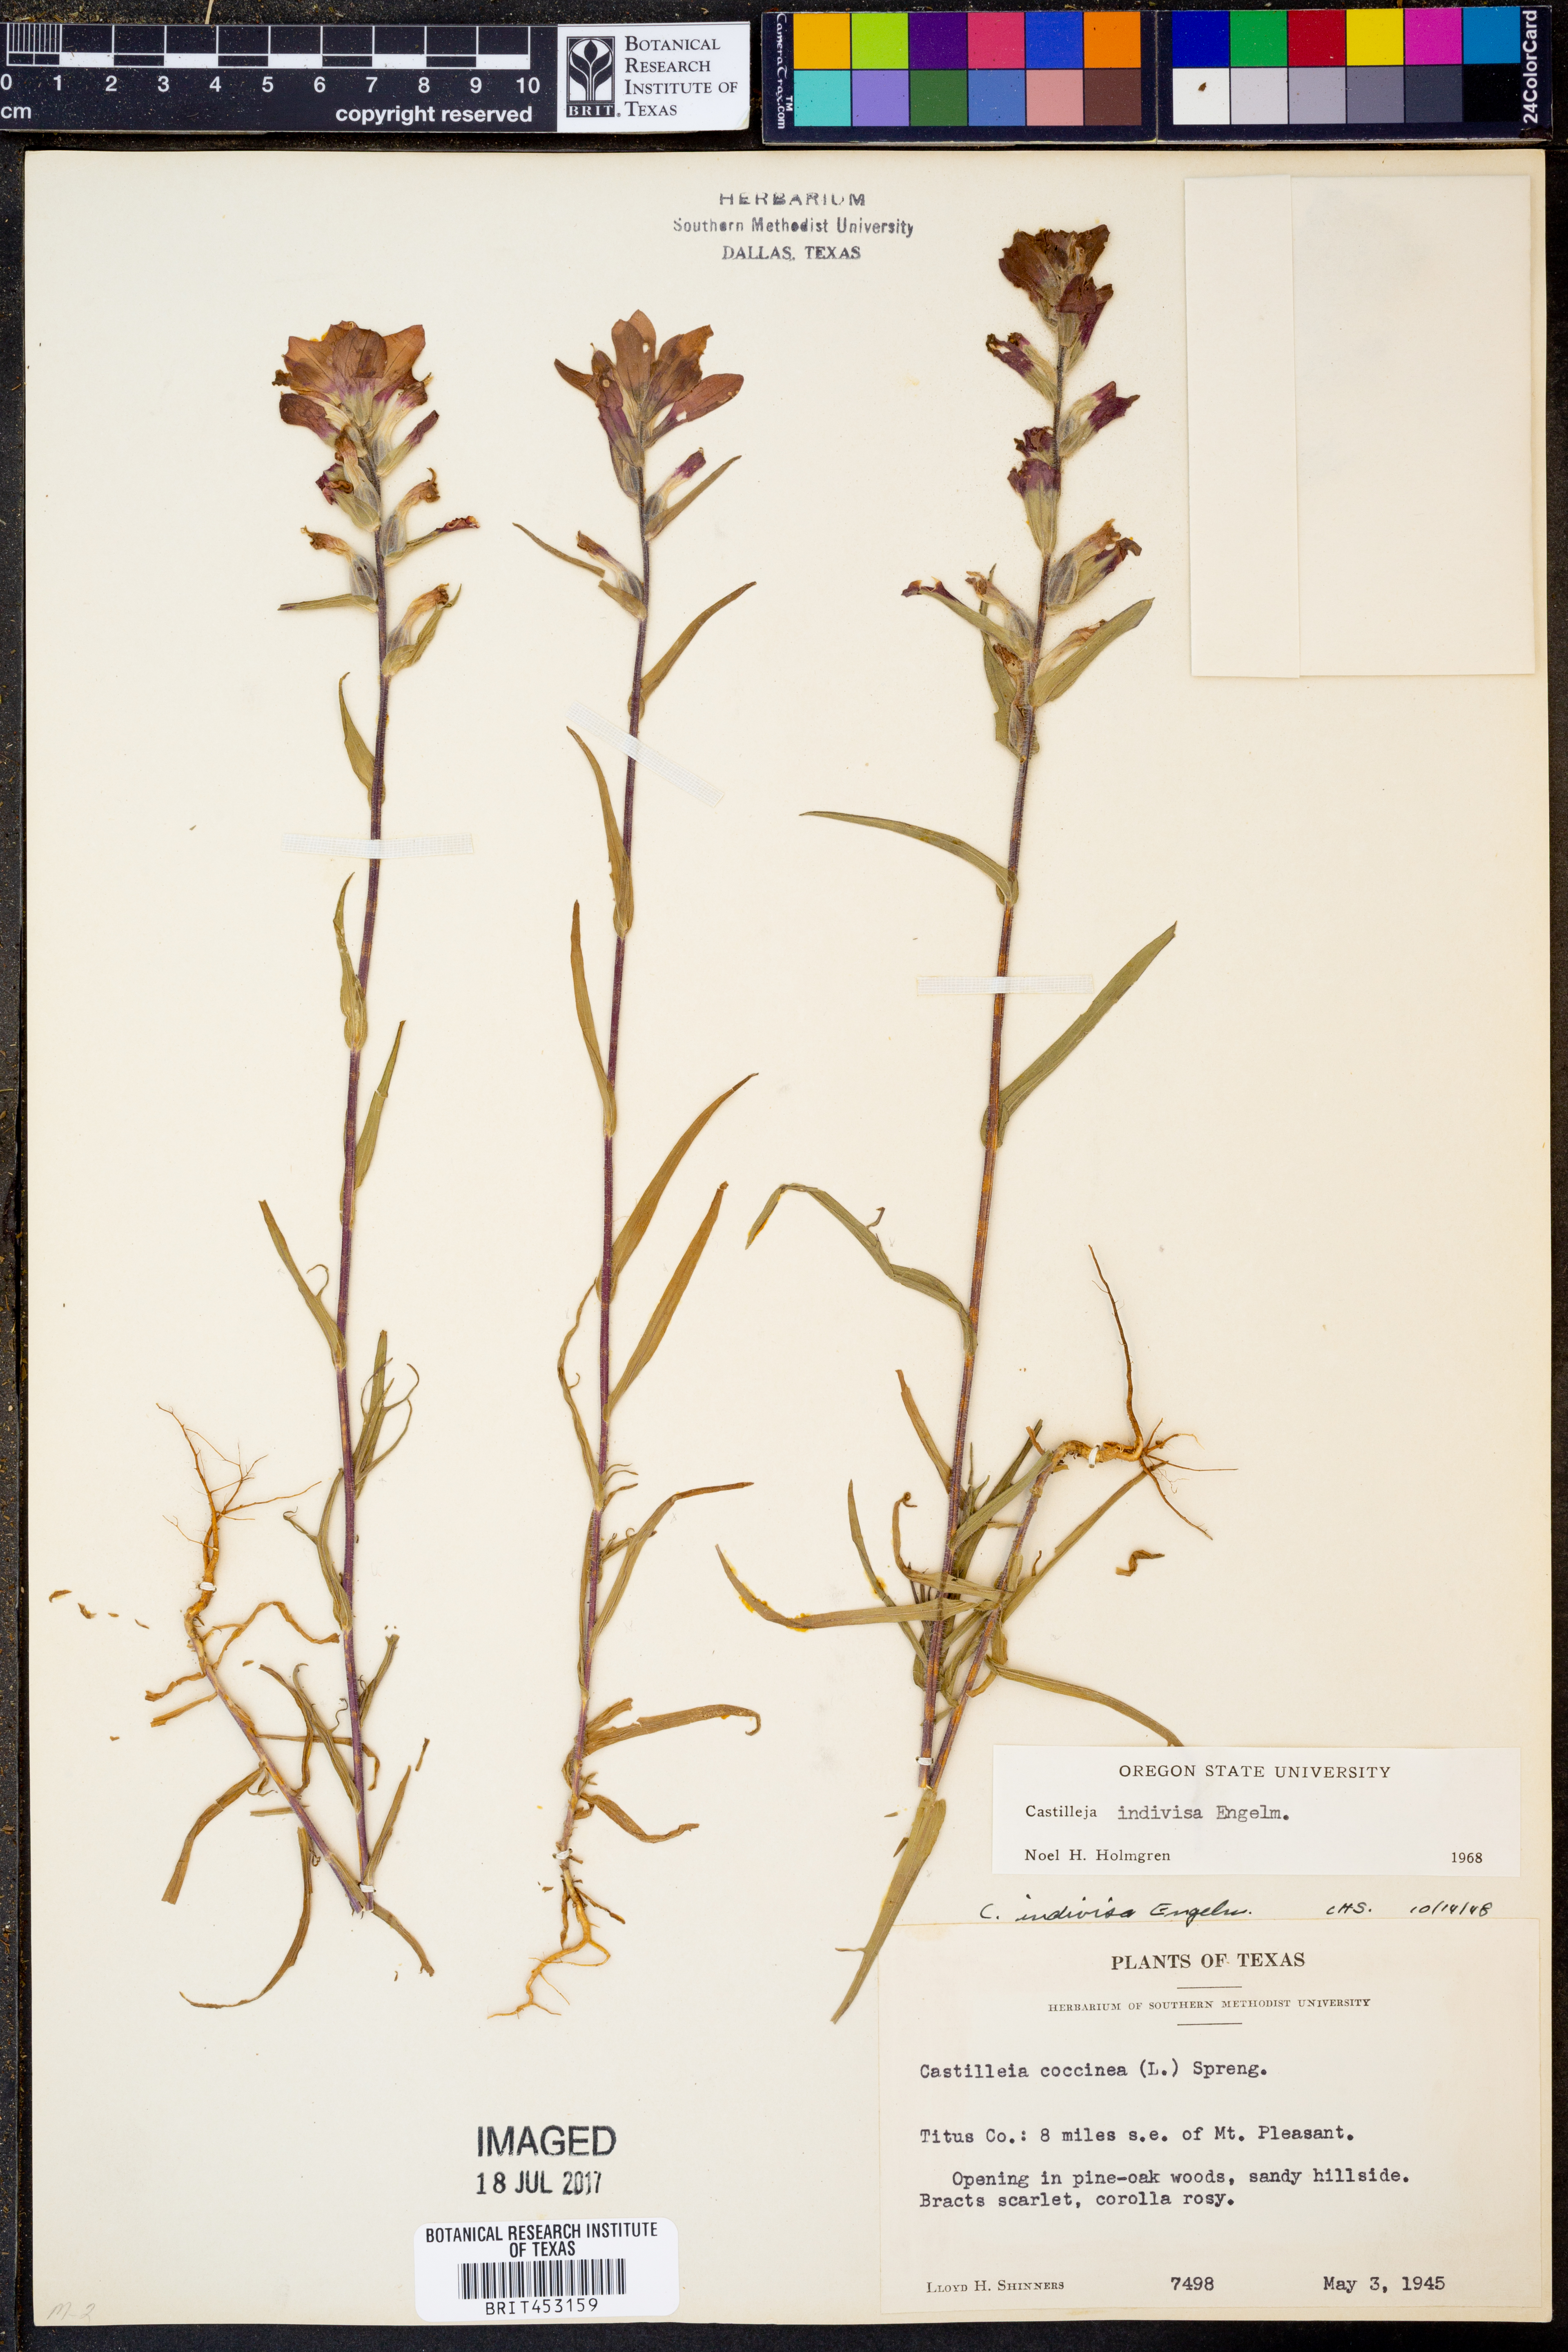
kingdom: Plantae
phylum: Tracheophyta
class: Magnoliopsida
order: Lamiales
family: Orobanchaceae
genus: Castilleja
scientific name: Castilleja indivisa
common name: Texas paintbrush
